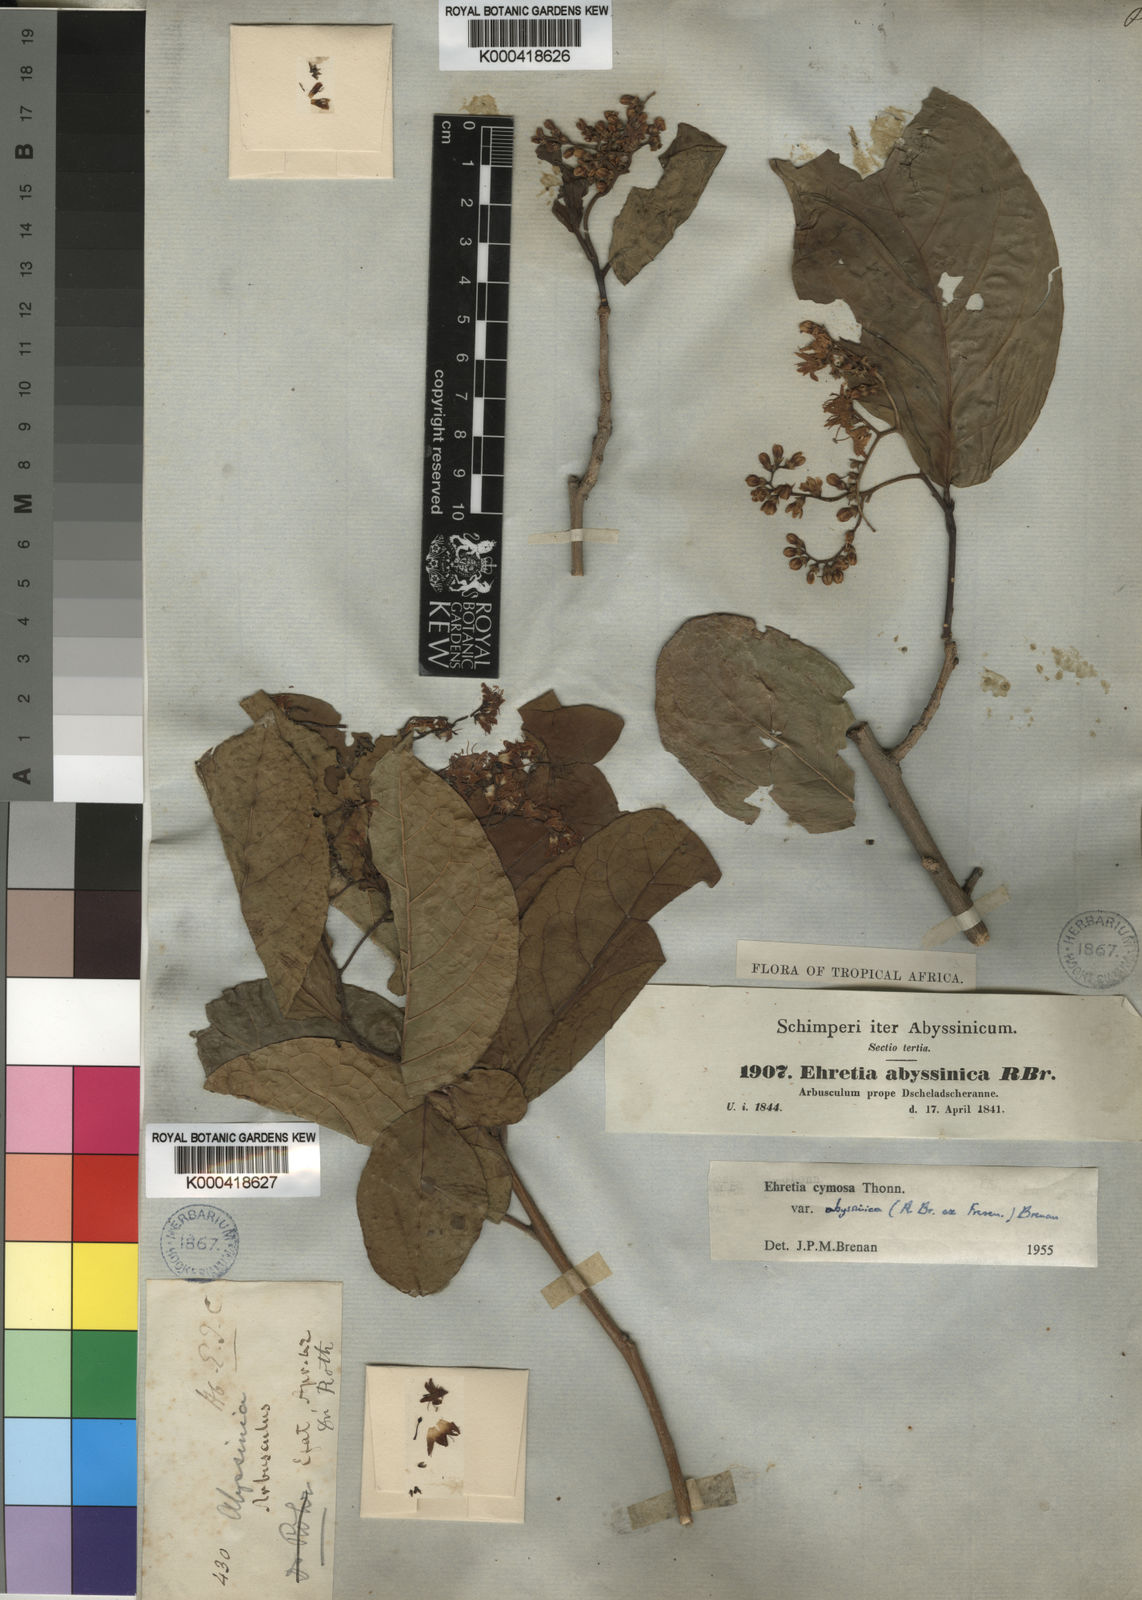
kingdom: Plantae
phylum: Tracheophyta
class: Magnoliopsida
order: Boraginales
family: Ehretiaceae
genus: Ehretia
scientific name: Ehretia cymosa
